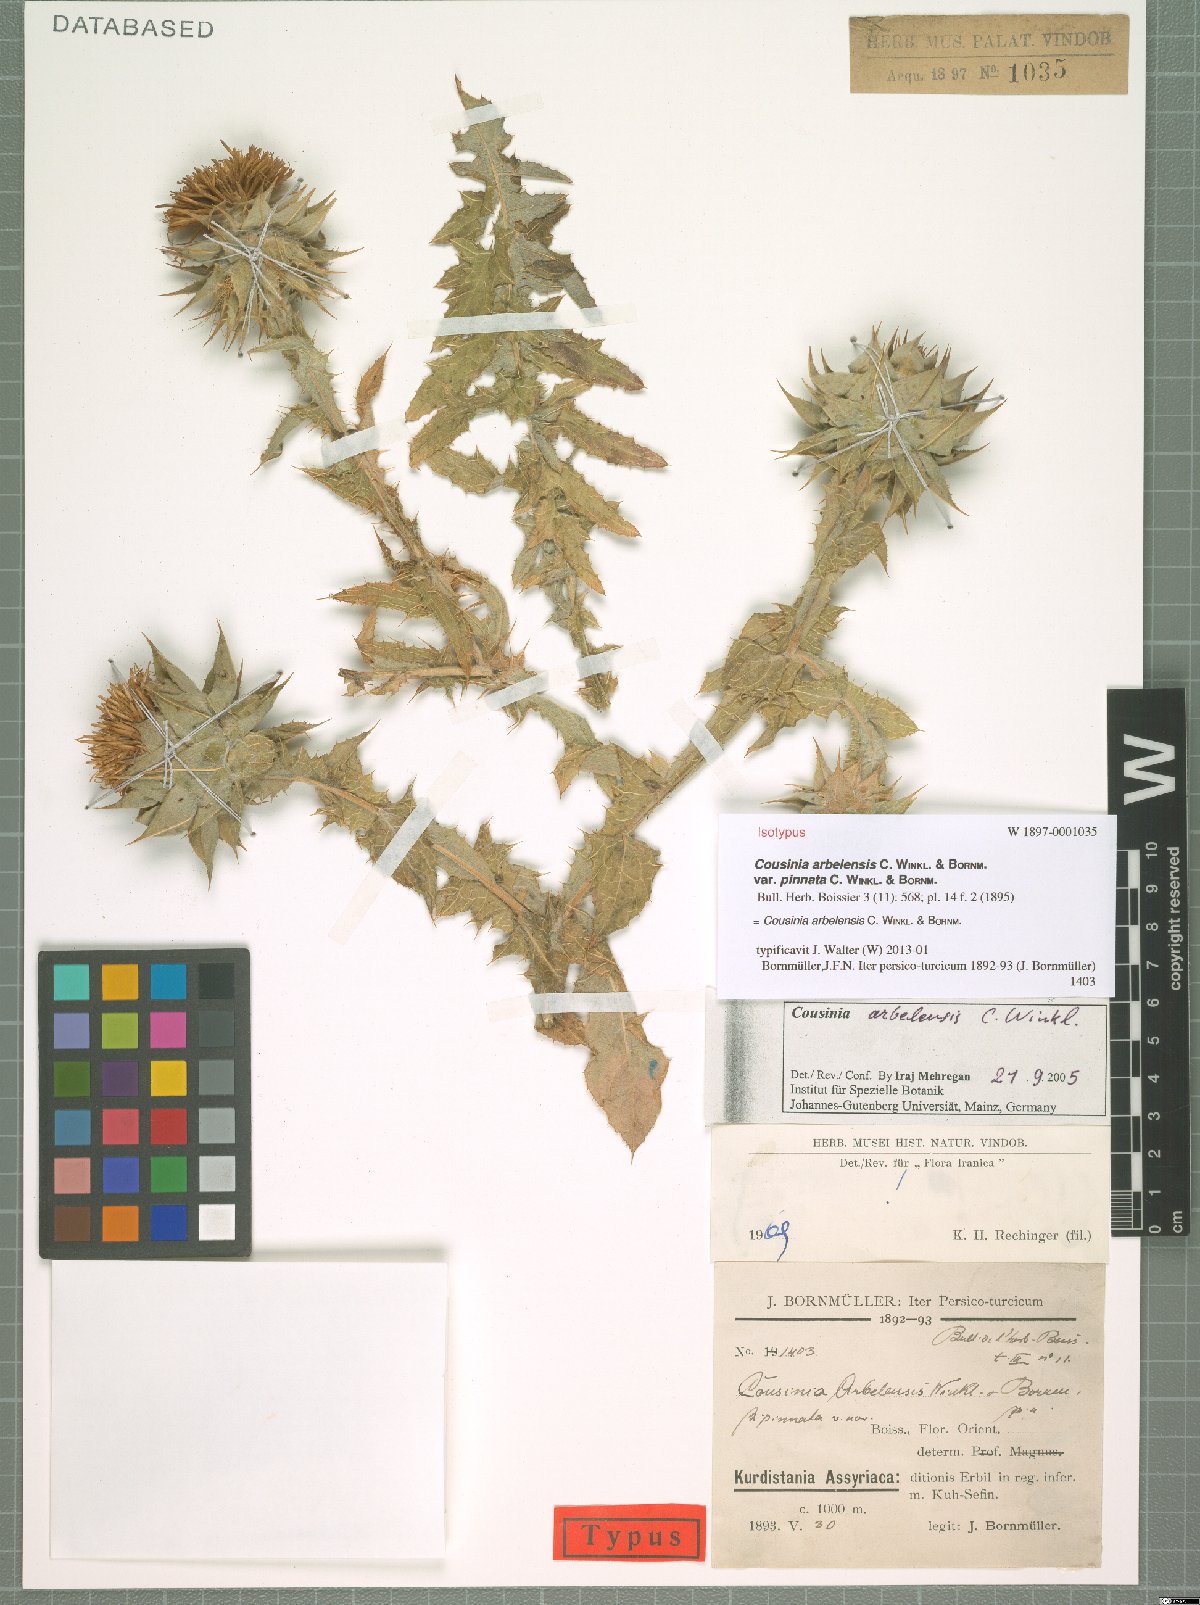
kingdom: Plantae
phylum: Tracheophyta
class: Magnoliopsida
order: Asterales
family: Asteraceae
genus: Cousinia
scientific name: Cousinia aintabensis
